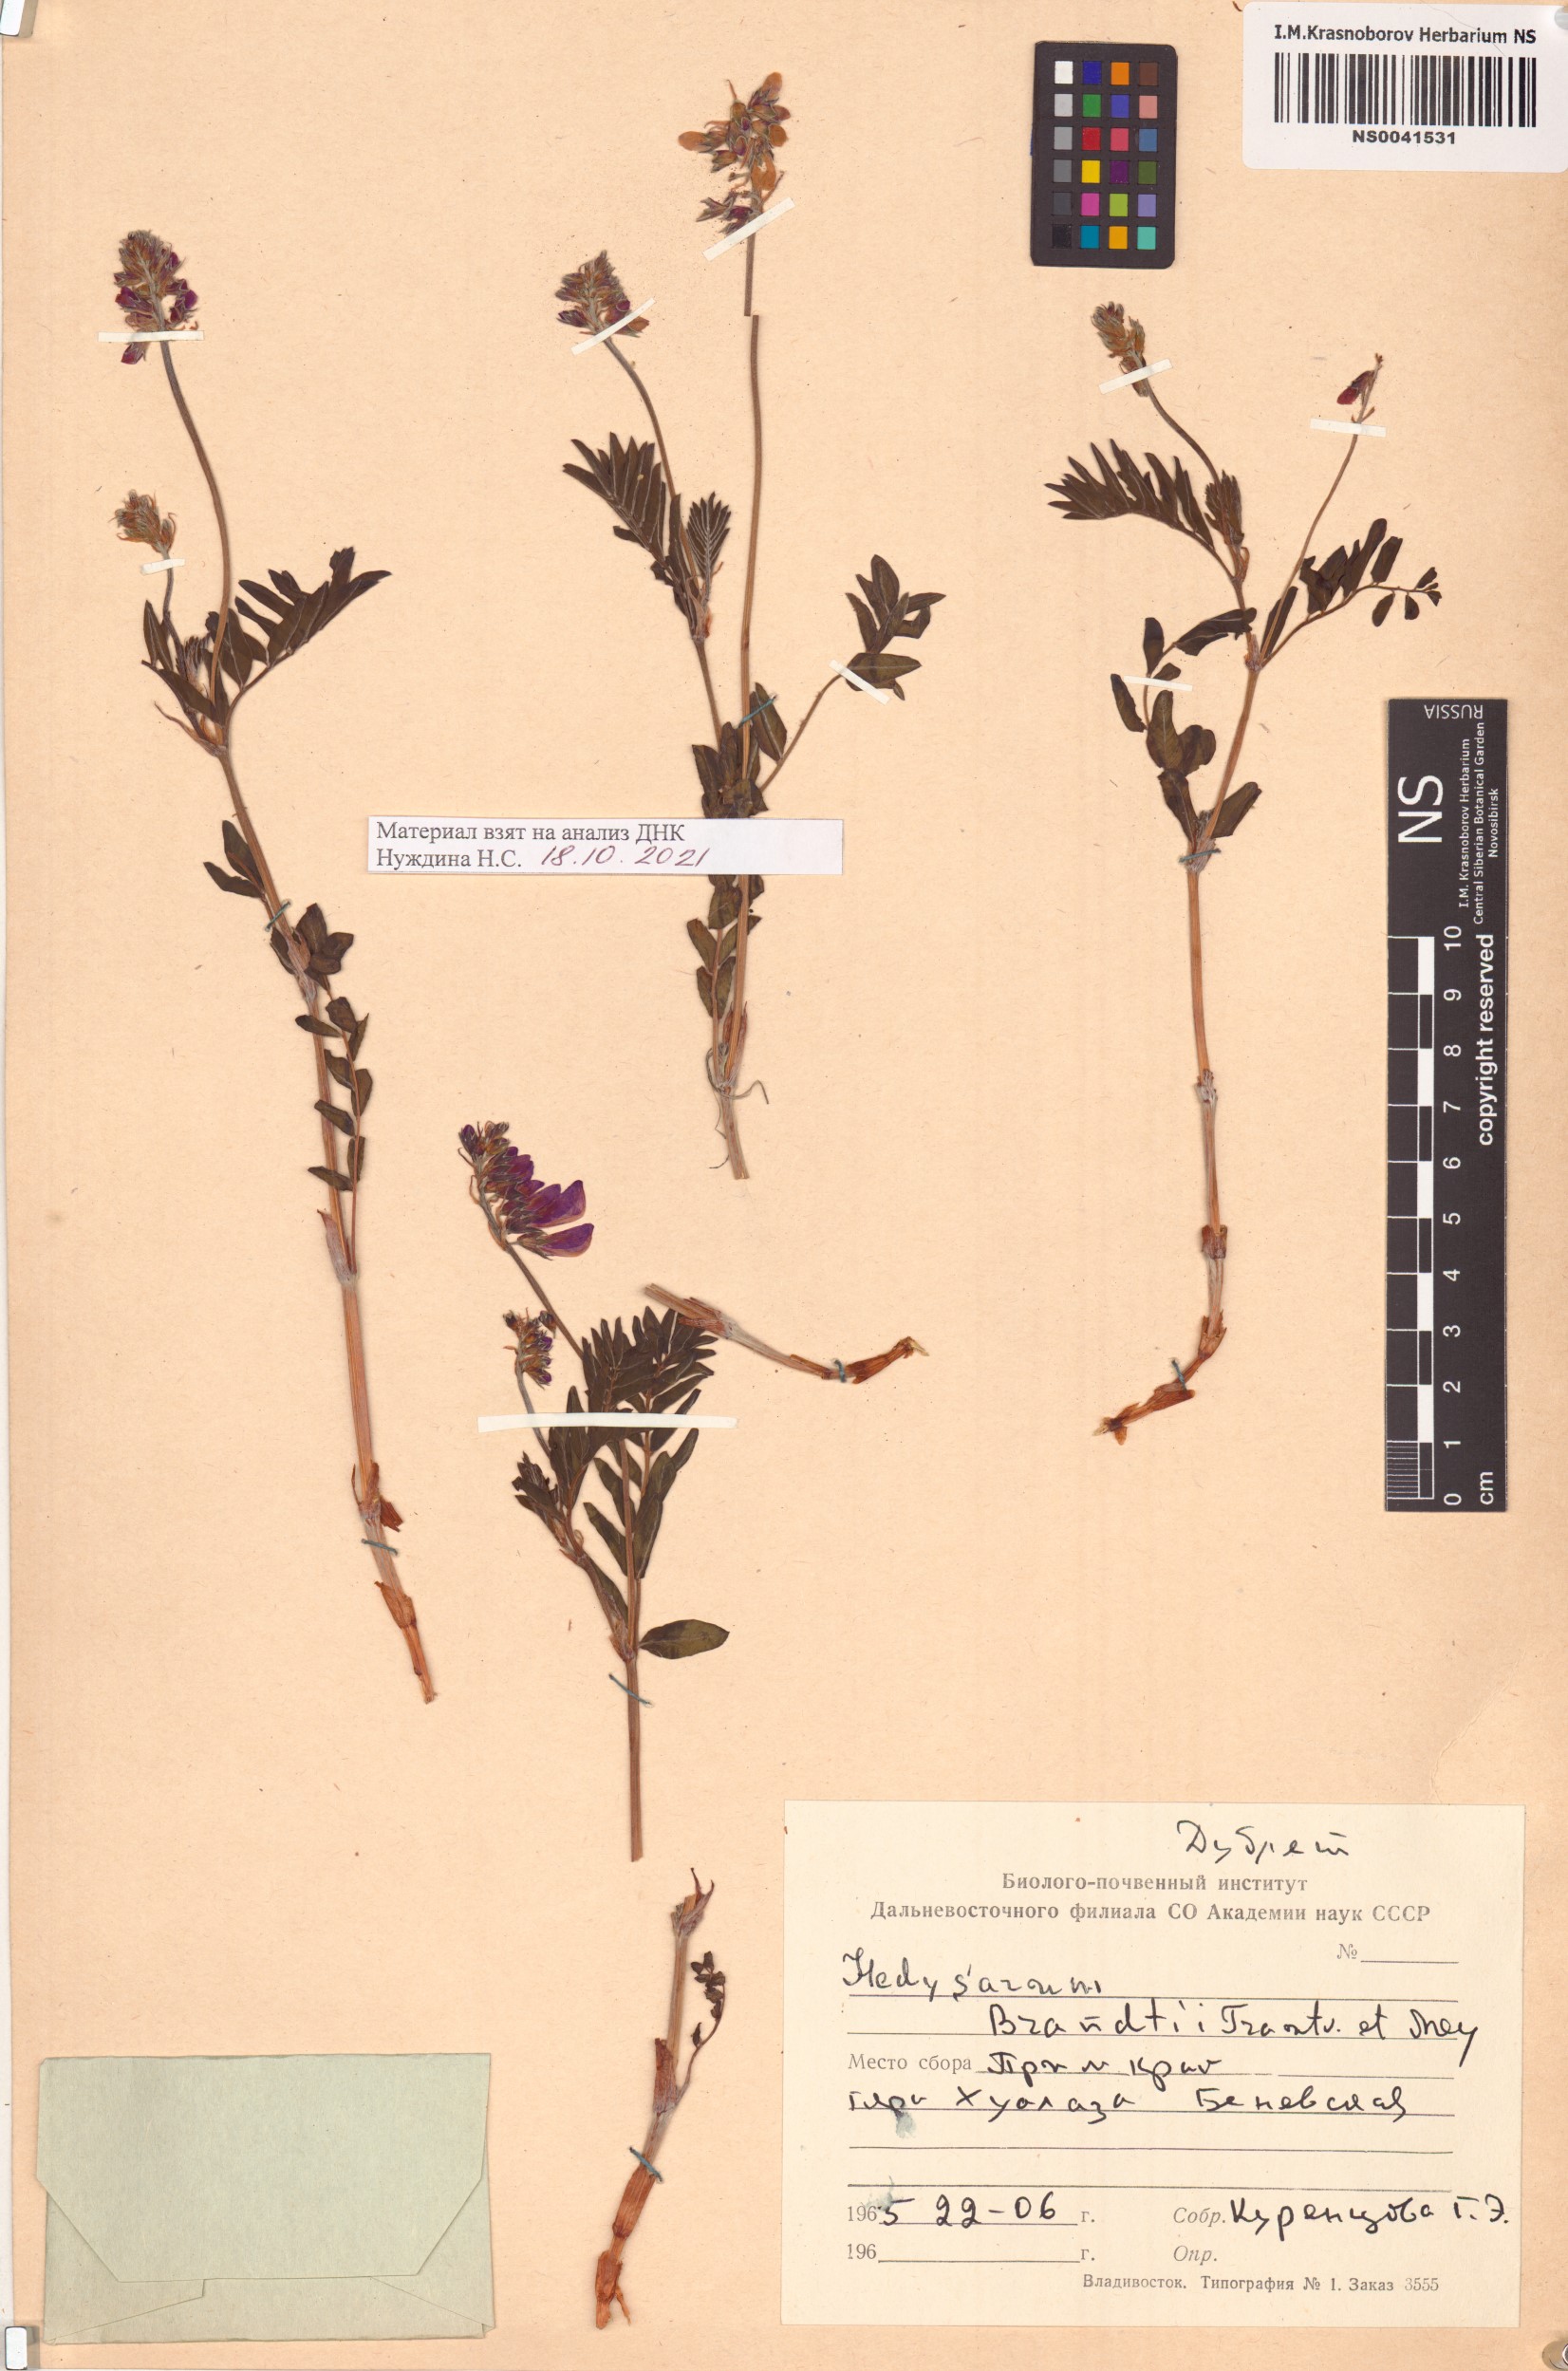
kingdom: Plantae
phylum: Tracheophyta
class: Magnoliopsida
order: Fabales
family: Fabaceae
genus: Hedysarum
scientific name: Hedysarum branthii
